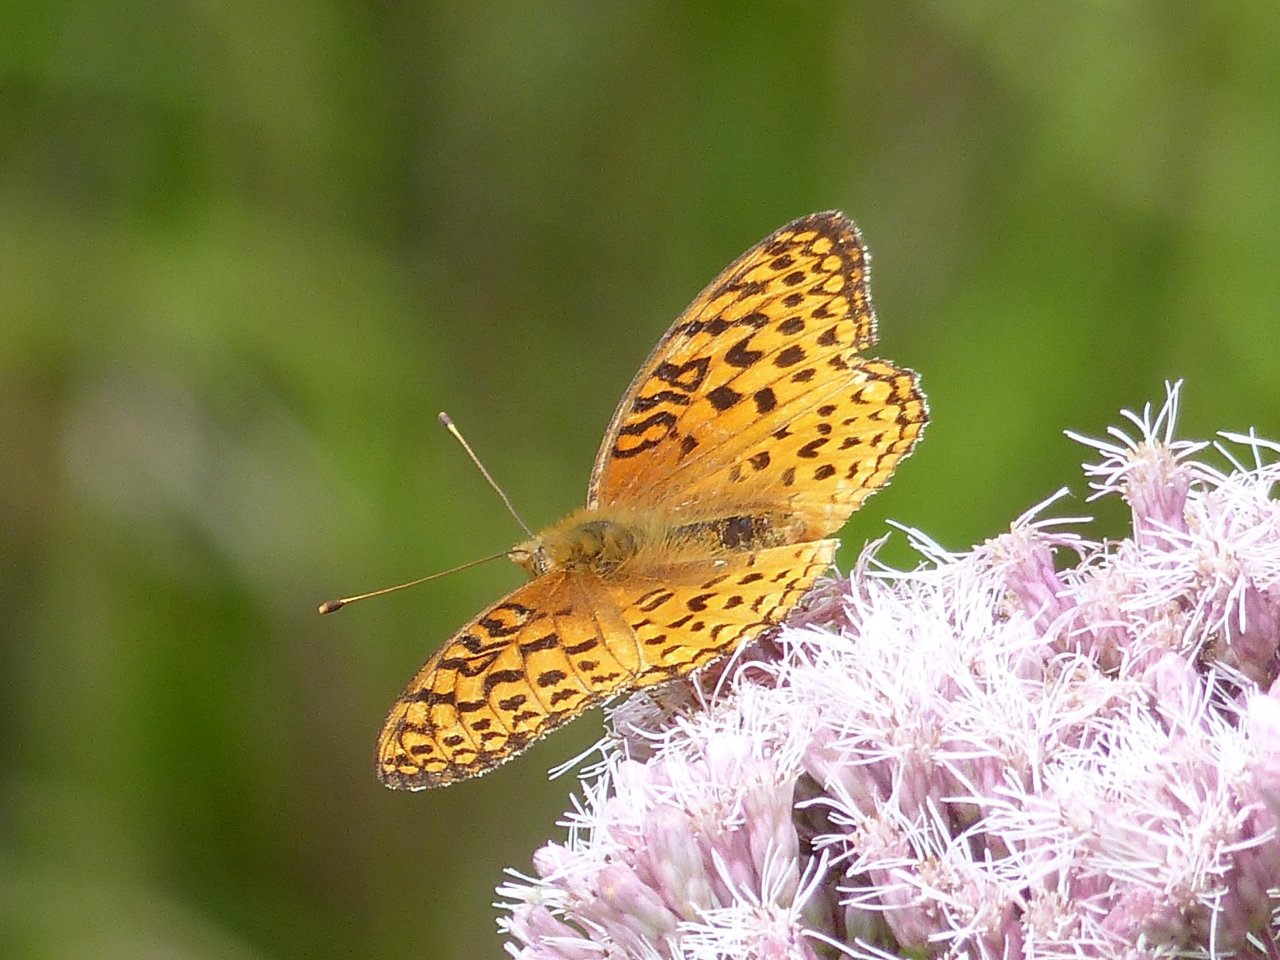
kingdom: Animalia
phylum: Arthropoda
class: Insecta
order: Lepidoptera
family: Nymphalidae
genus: Speyeria
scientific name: Speyeria aphrodite
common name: Aphrodite Fritillary
